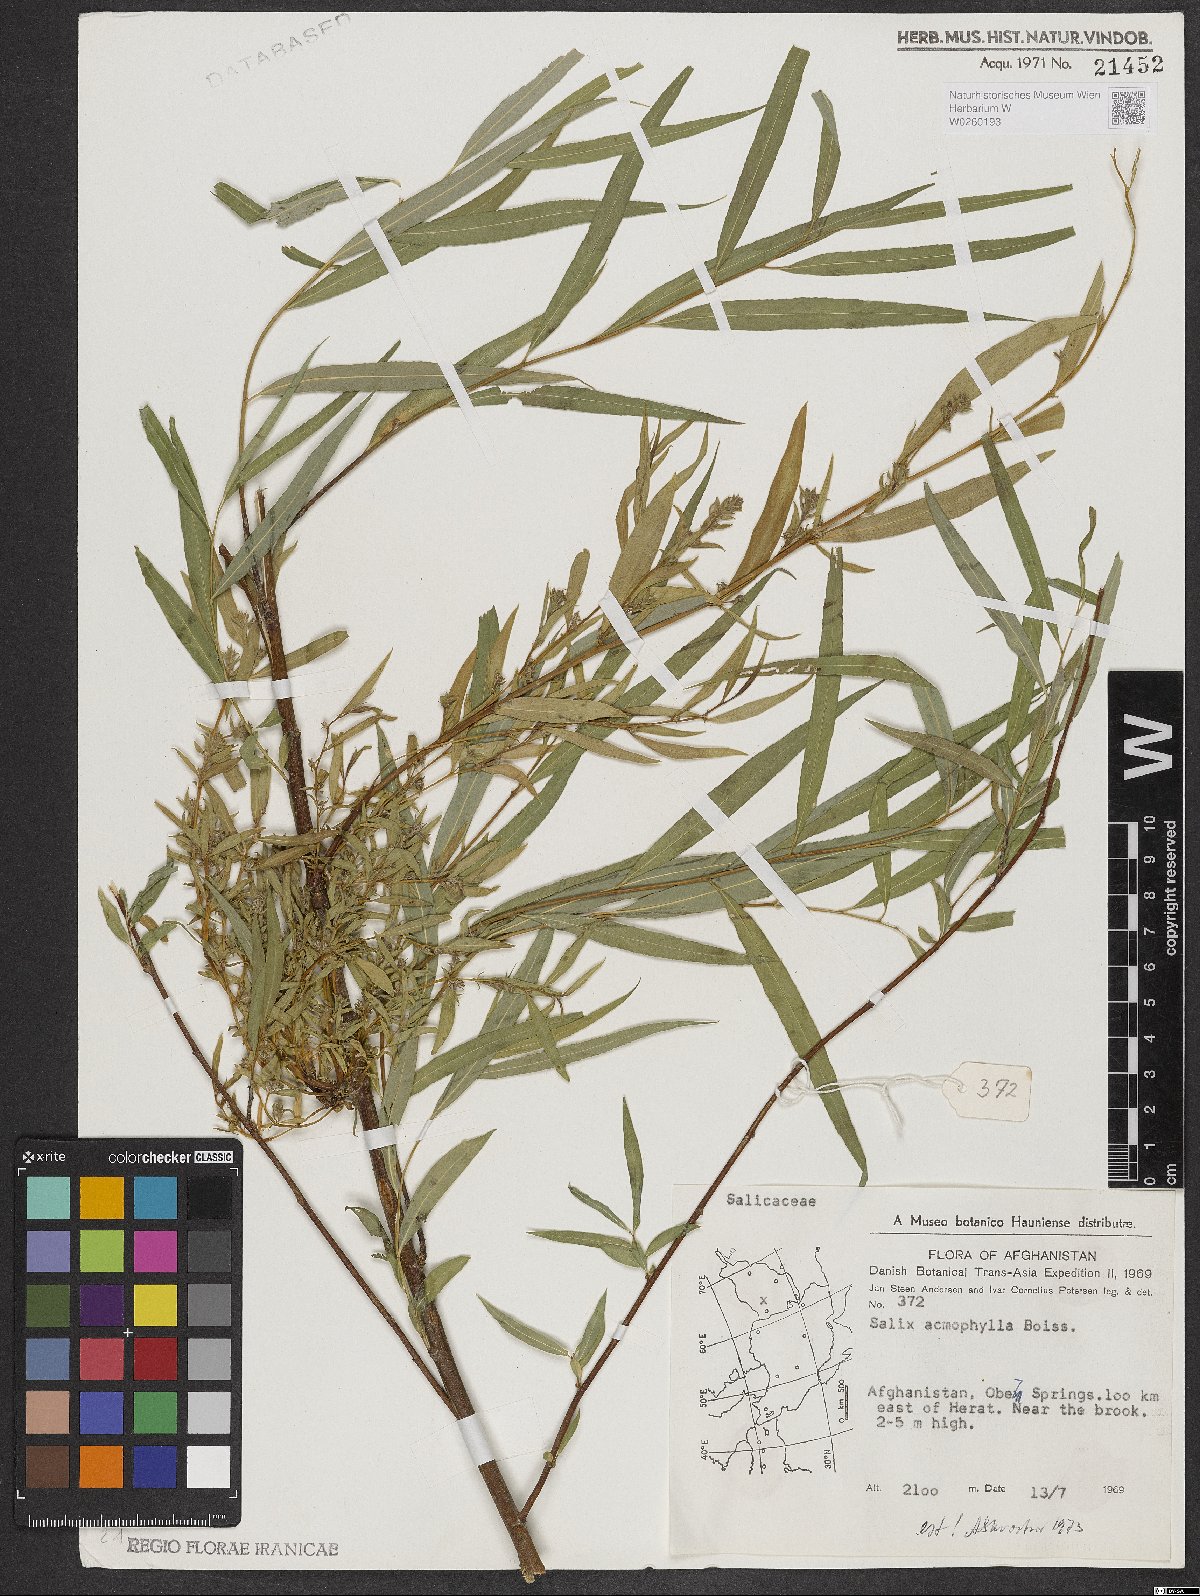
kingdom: Plantae
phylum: Tracheophyta
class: Magnoliopsida
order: Malpighiales
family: Salicaceae
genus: Salix
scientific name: Salix acmophylla
